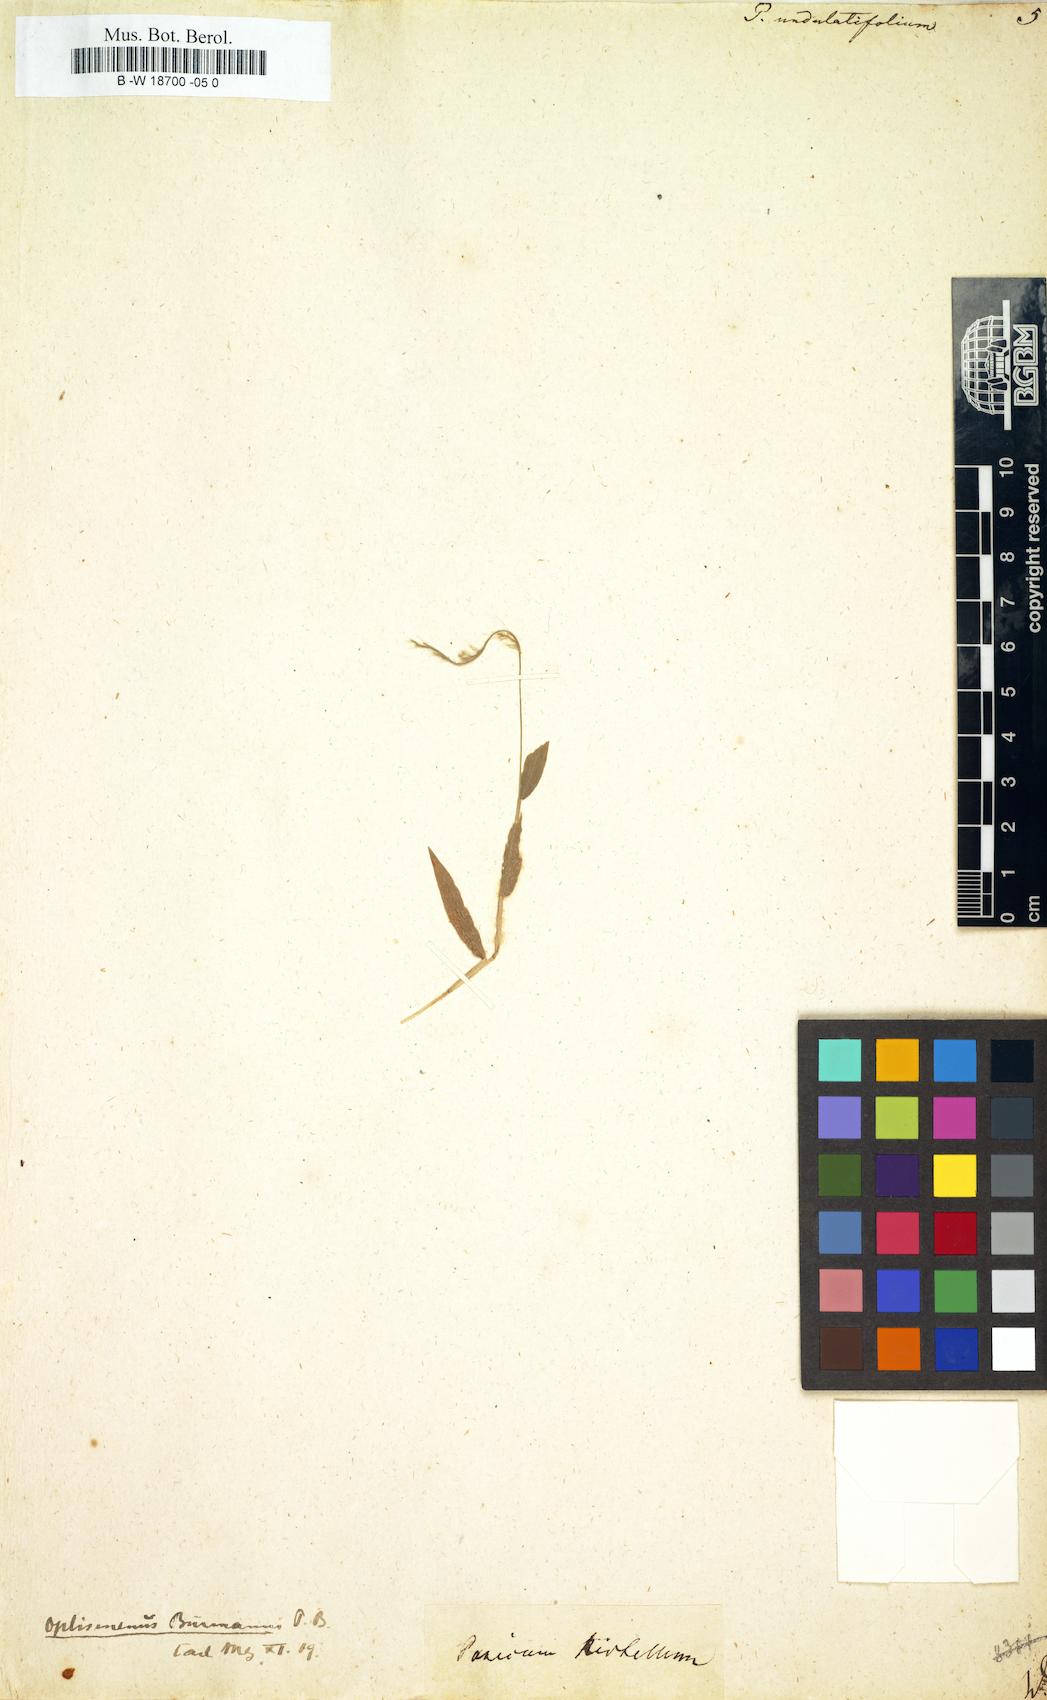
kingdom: Plantae
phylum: Tracheophyta
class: Liliopsida
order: Poales
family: Poaceae
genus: Oplismenus
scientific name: Oplismenus undulatifolius
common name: Wavyleaf basketgrass
